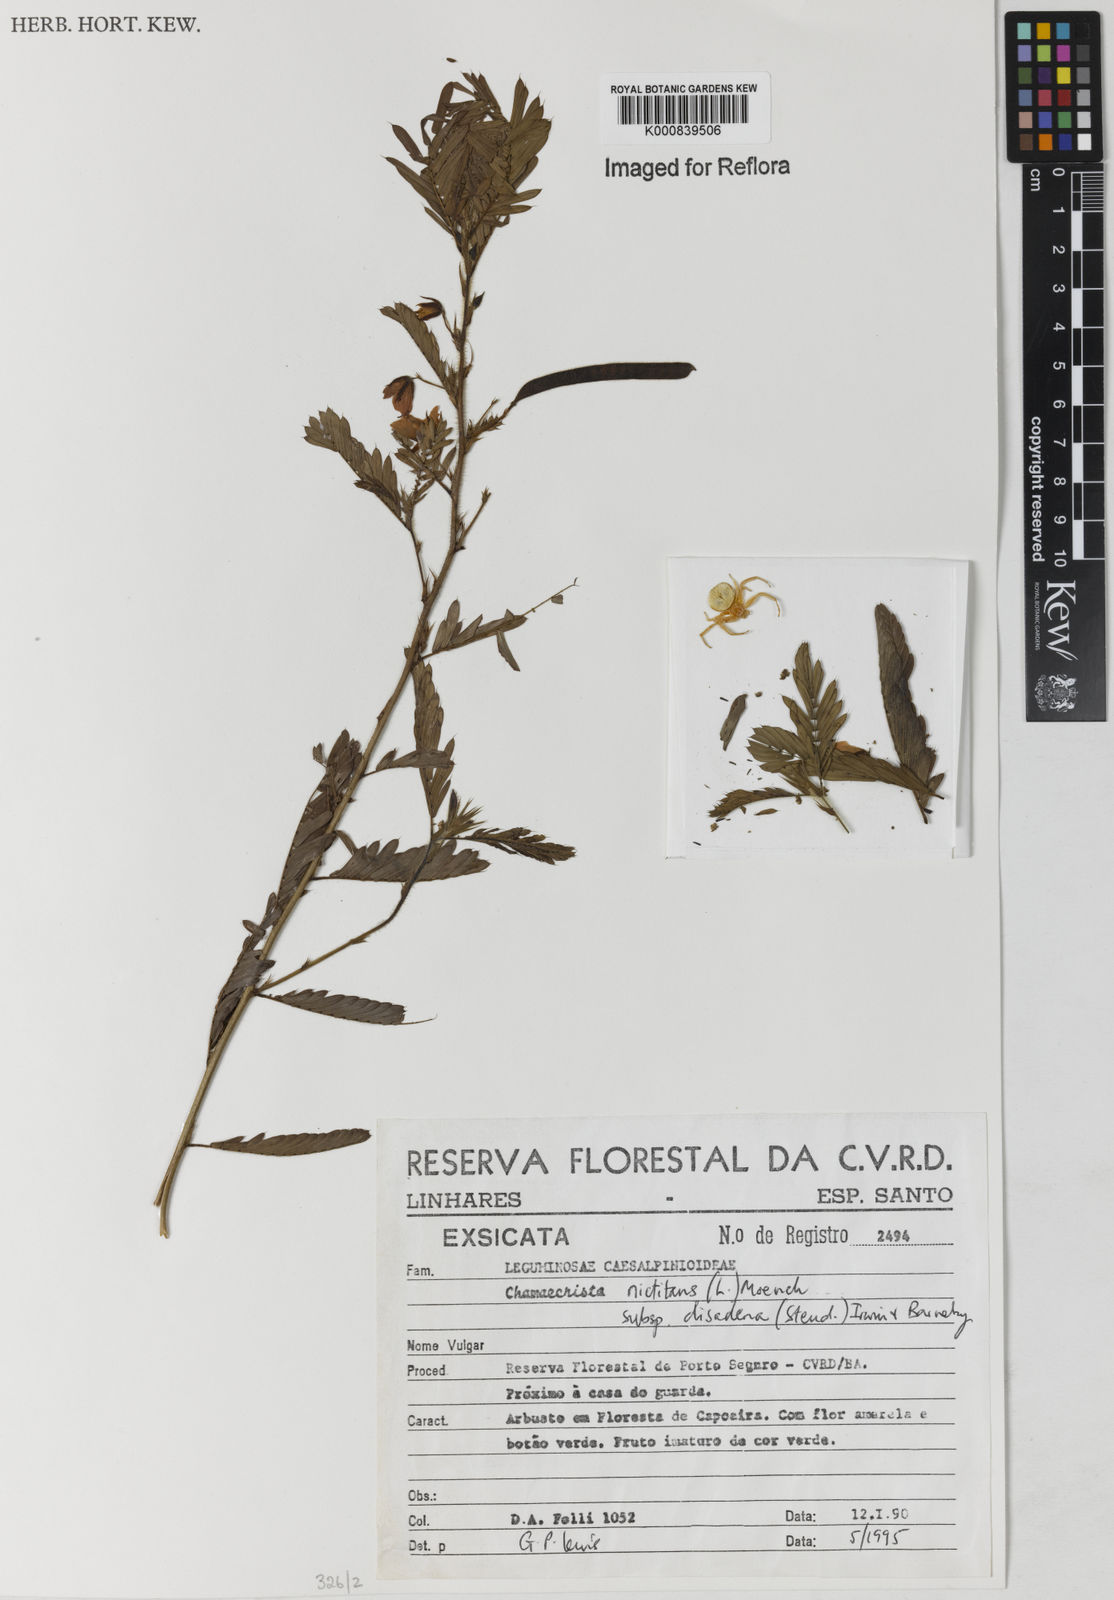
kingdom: Plantae
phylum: Tracheophyta
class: Magnoliopsida
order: Fabales
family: Fabaceae
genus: Chamaecrista
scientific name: Chamaecrista nictitans
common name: Sensitive cassia
